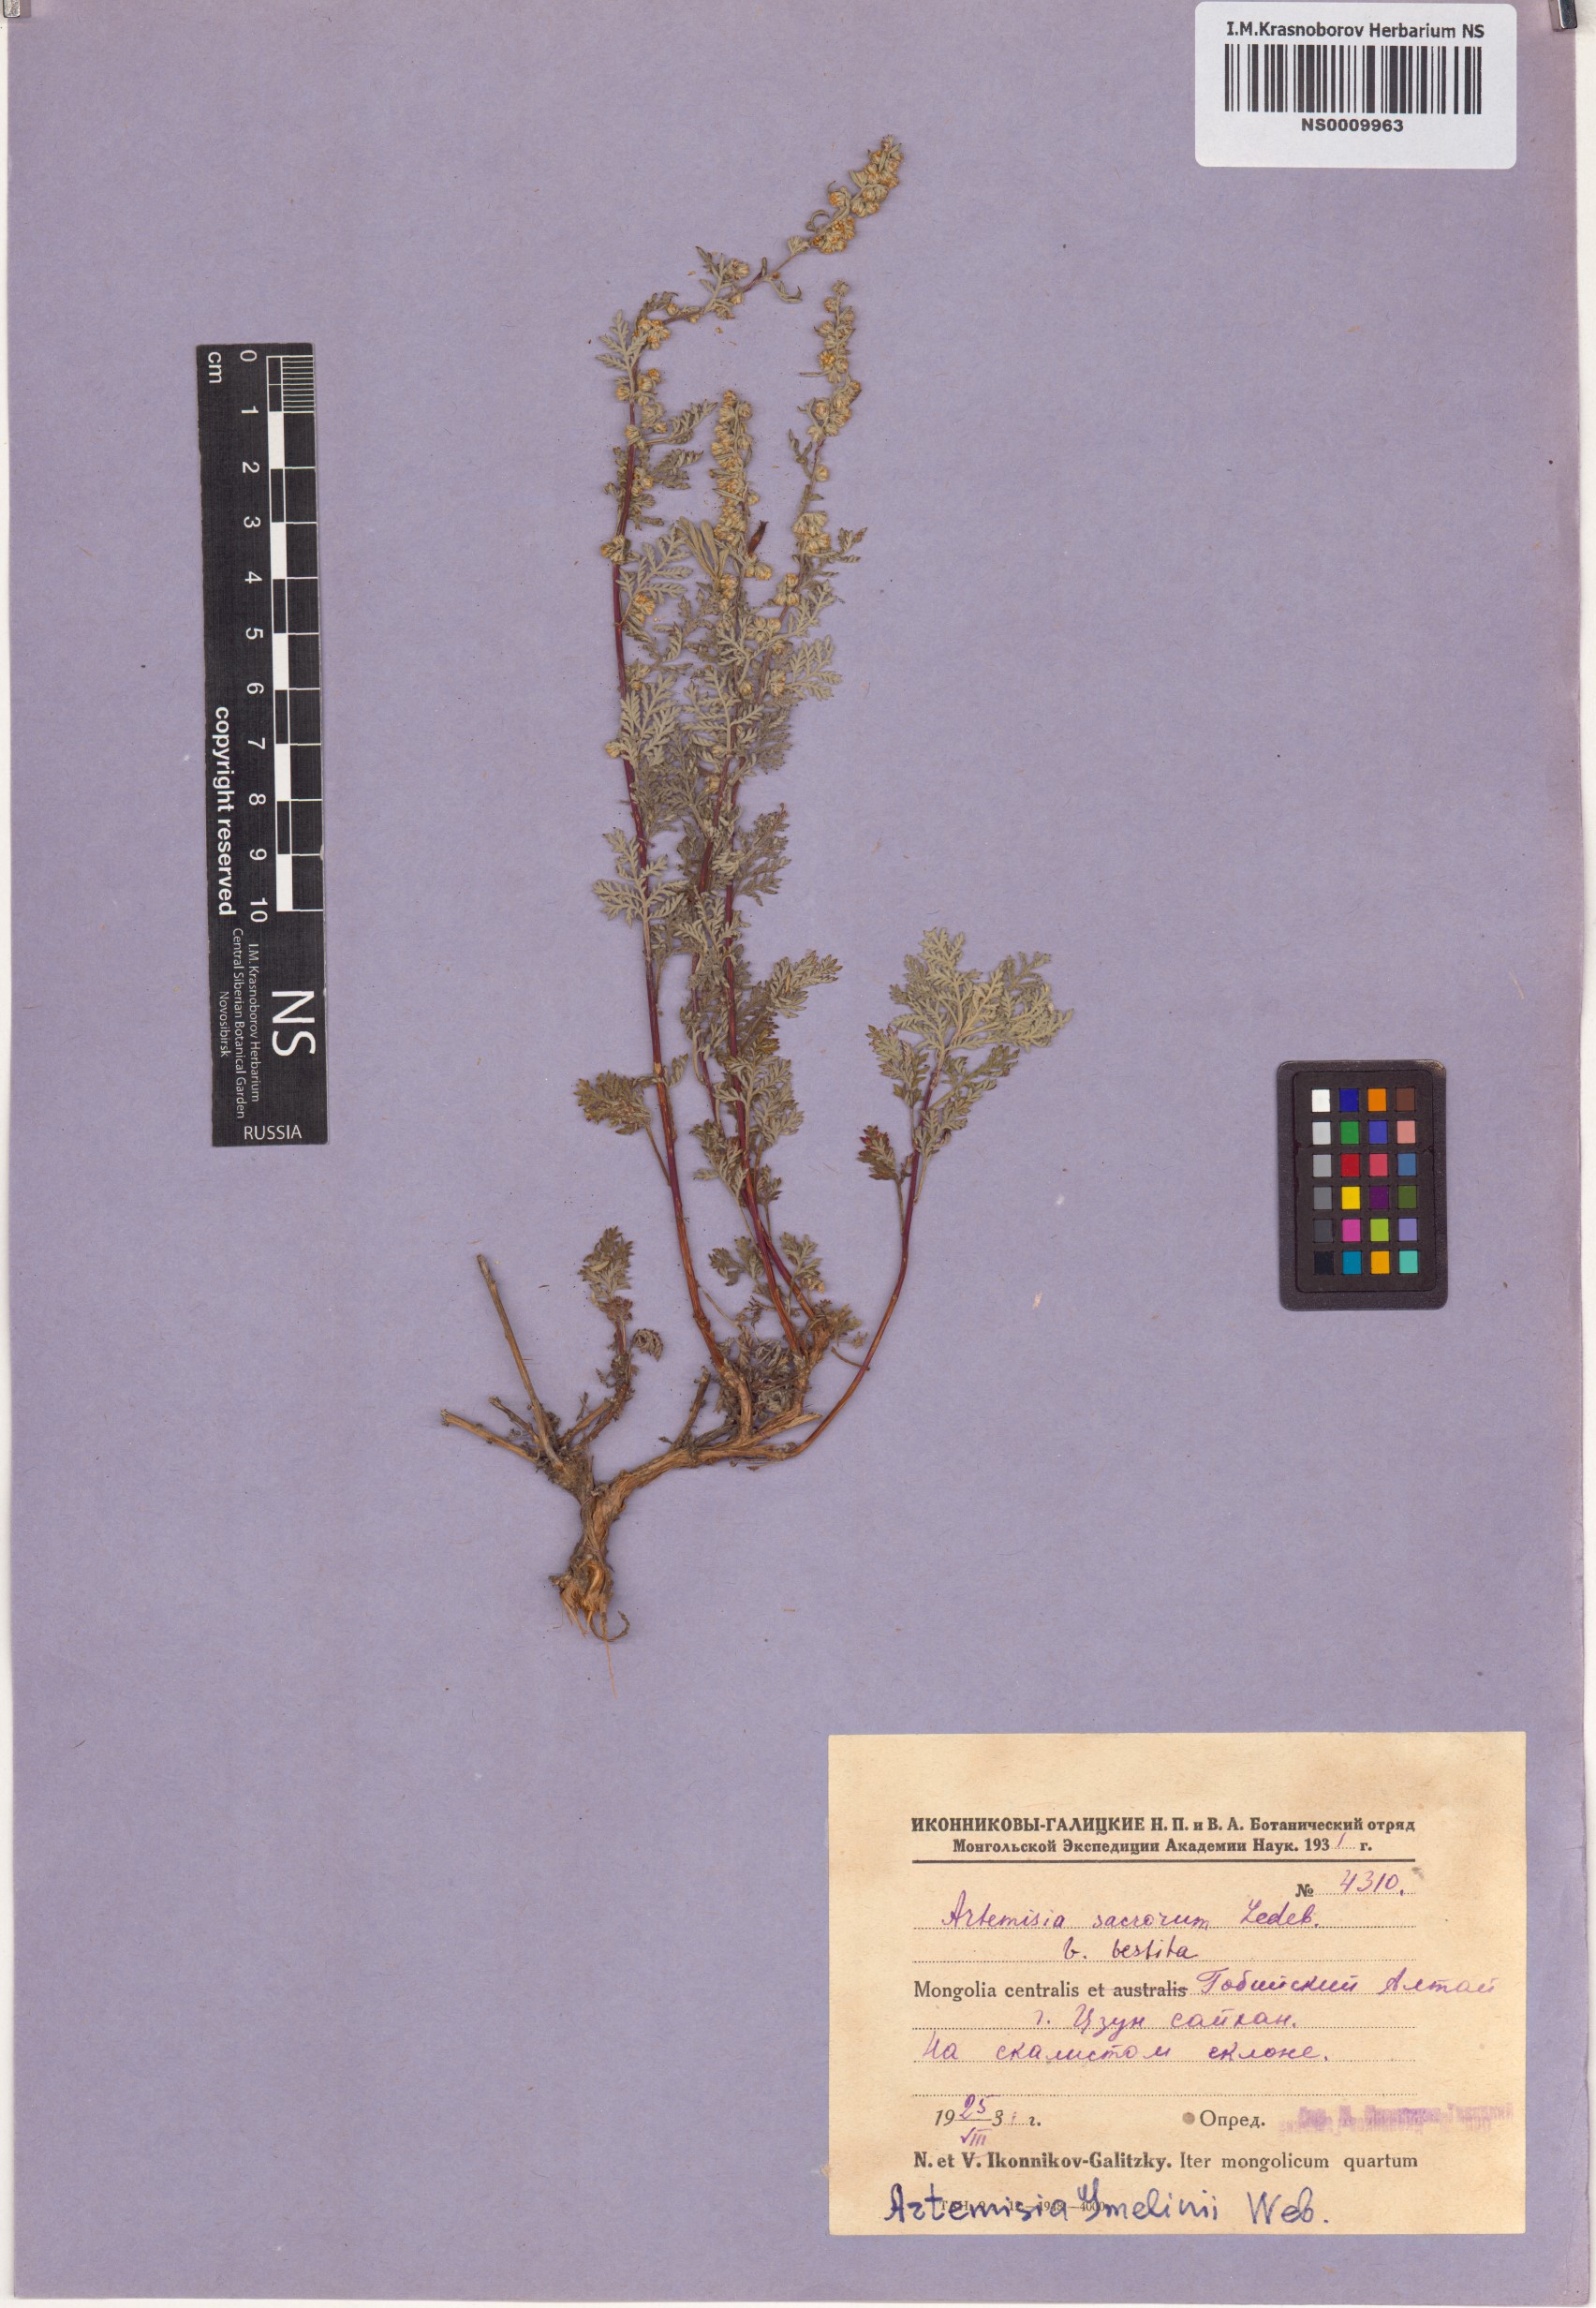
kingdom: Plantae
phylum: Tracheophyta
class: Magnoliopsida
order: Asterales
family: Asteraceae
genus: Artemisia
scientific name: Artemisia gmelinii
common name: Gmelin's wormwood
